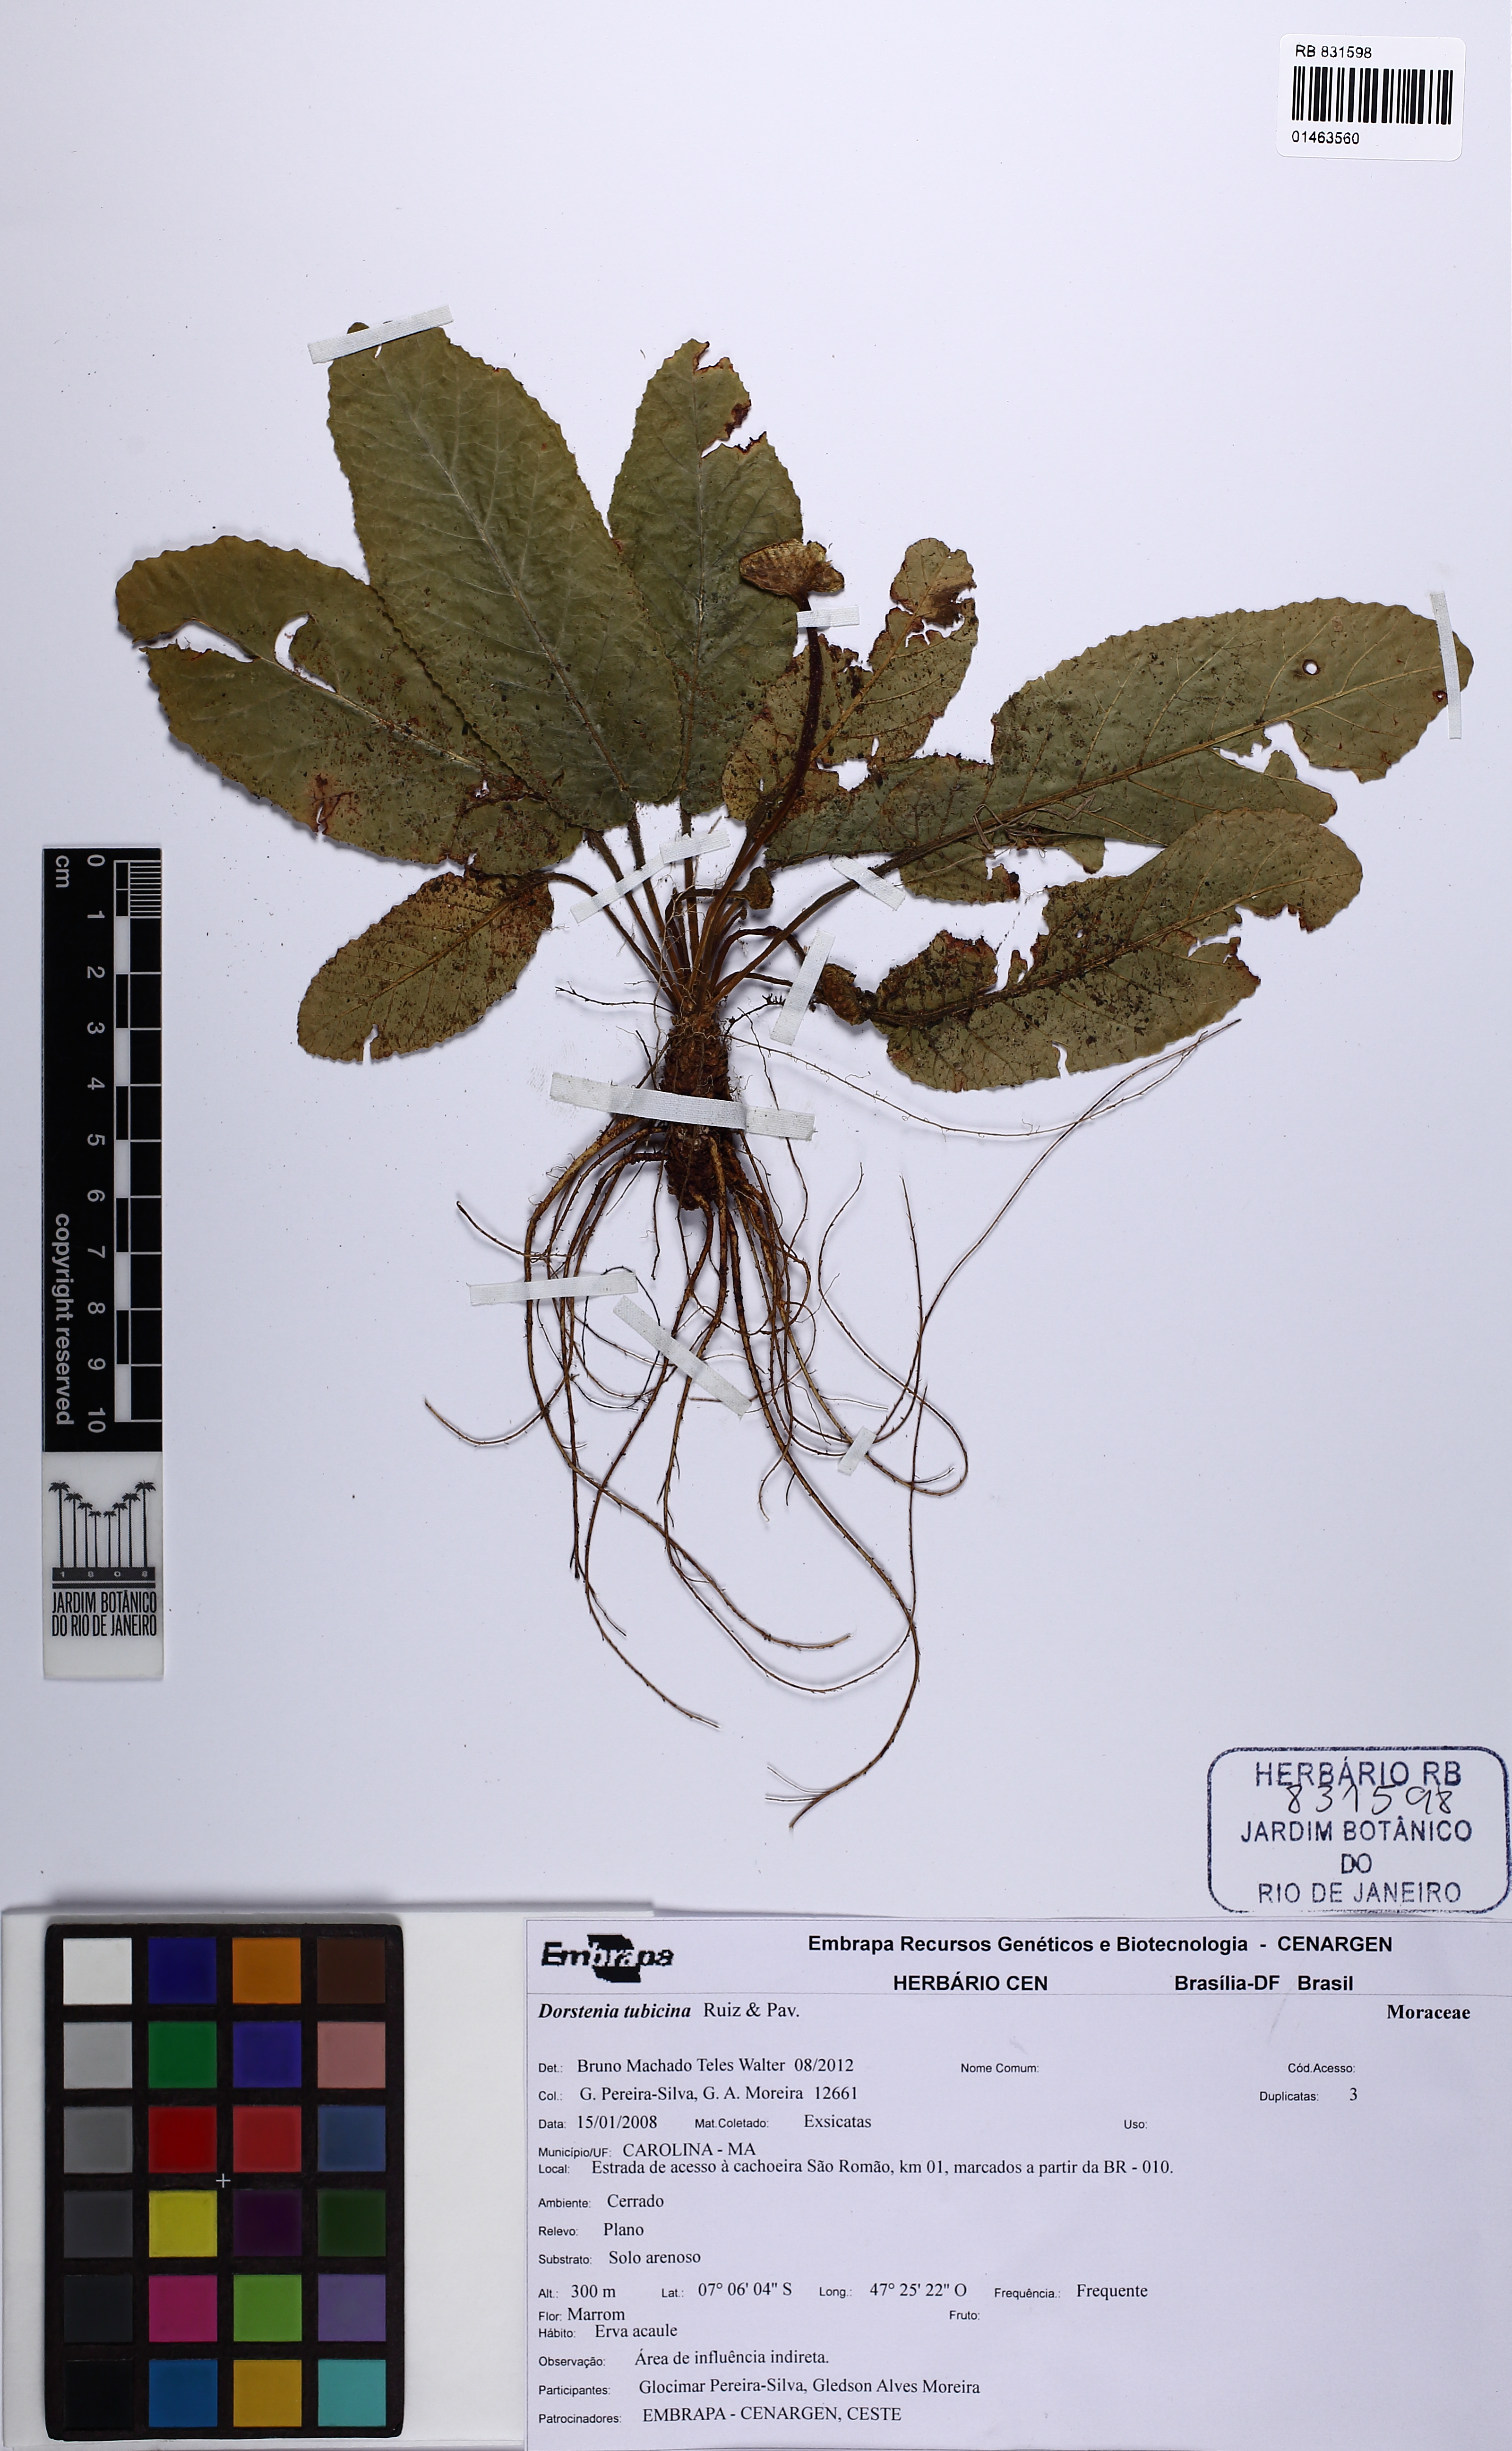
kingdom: Plantae
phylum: Tracheophyta
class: Magnoliopsida
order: Rosales
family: Moraceae
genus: Dorstenia
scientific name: Dorstenia brasiliensis
